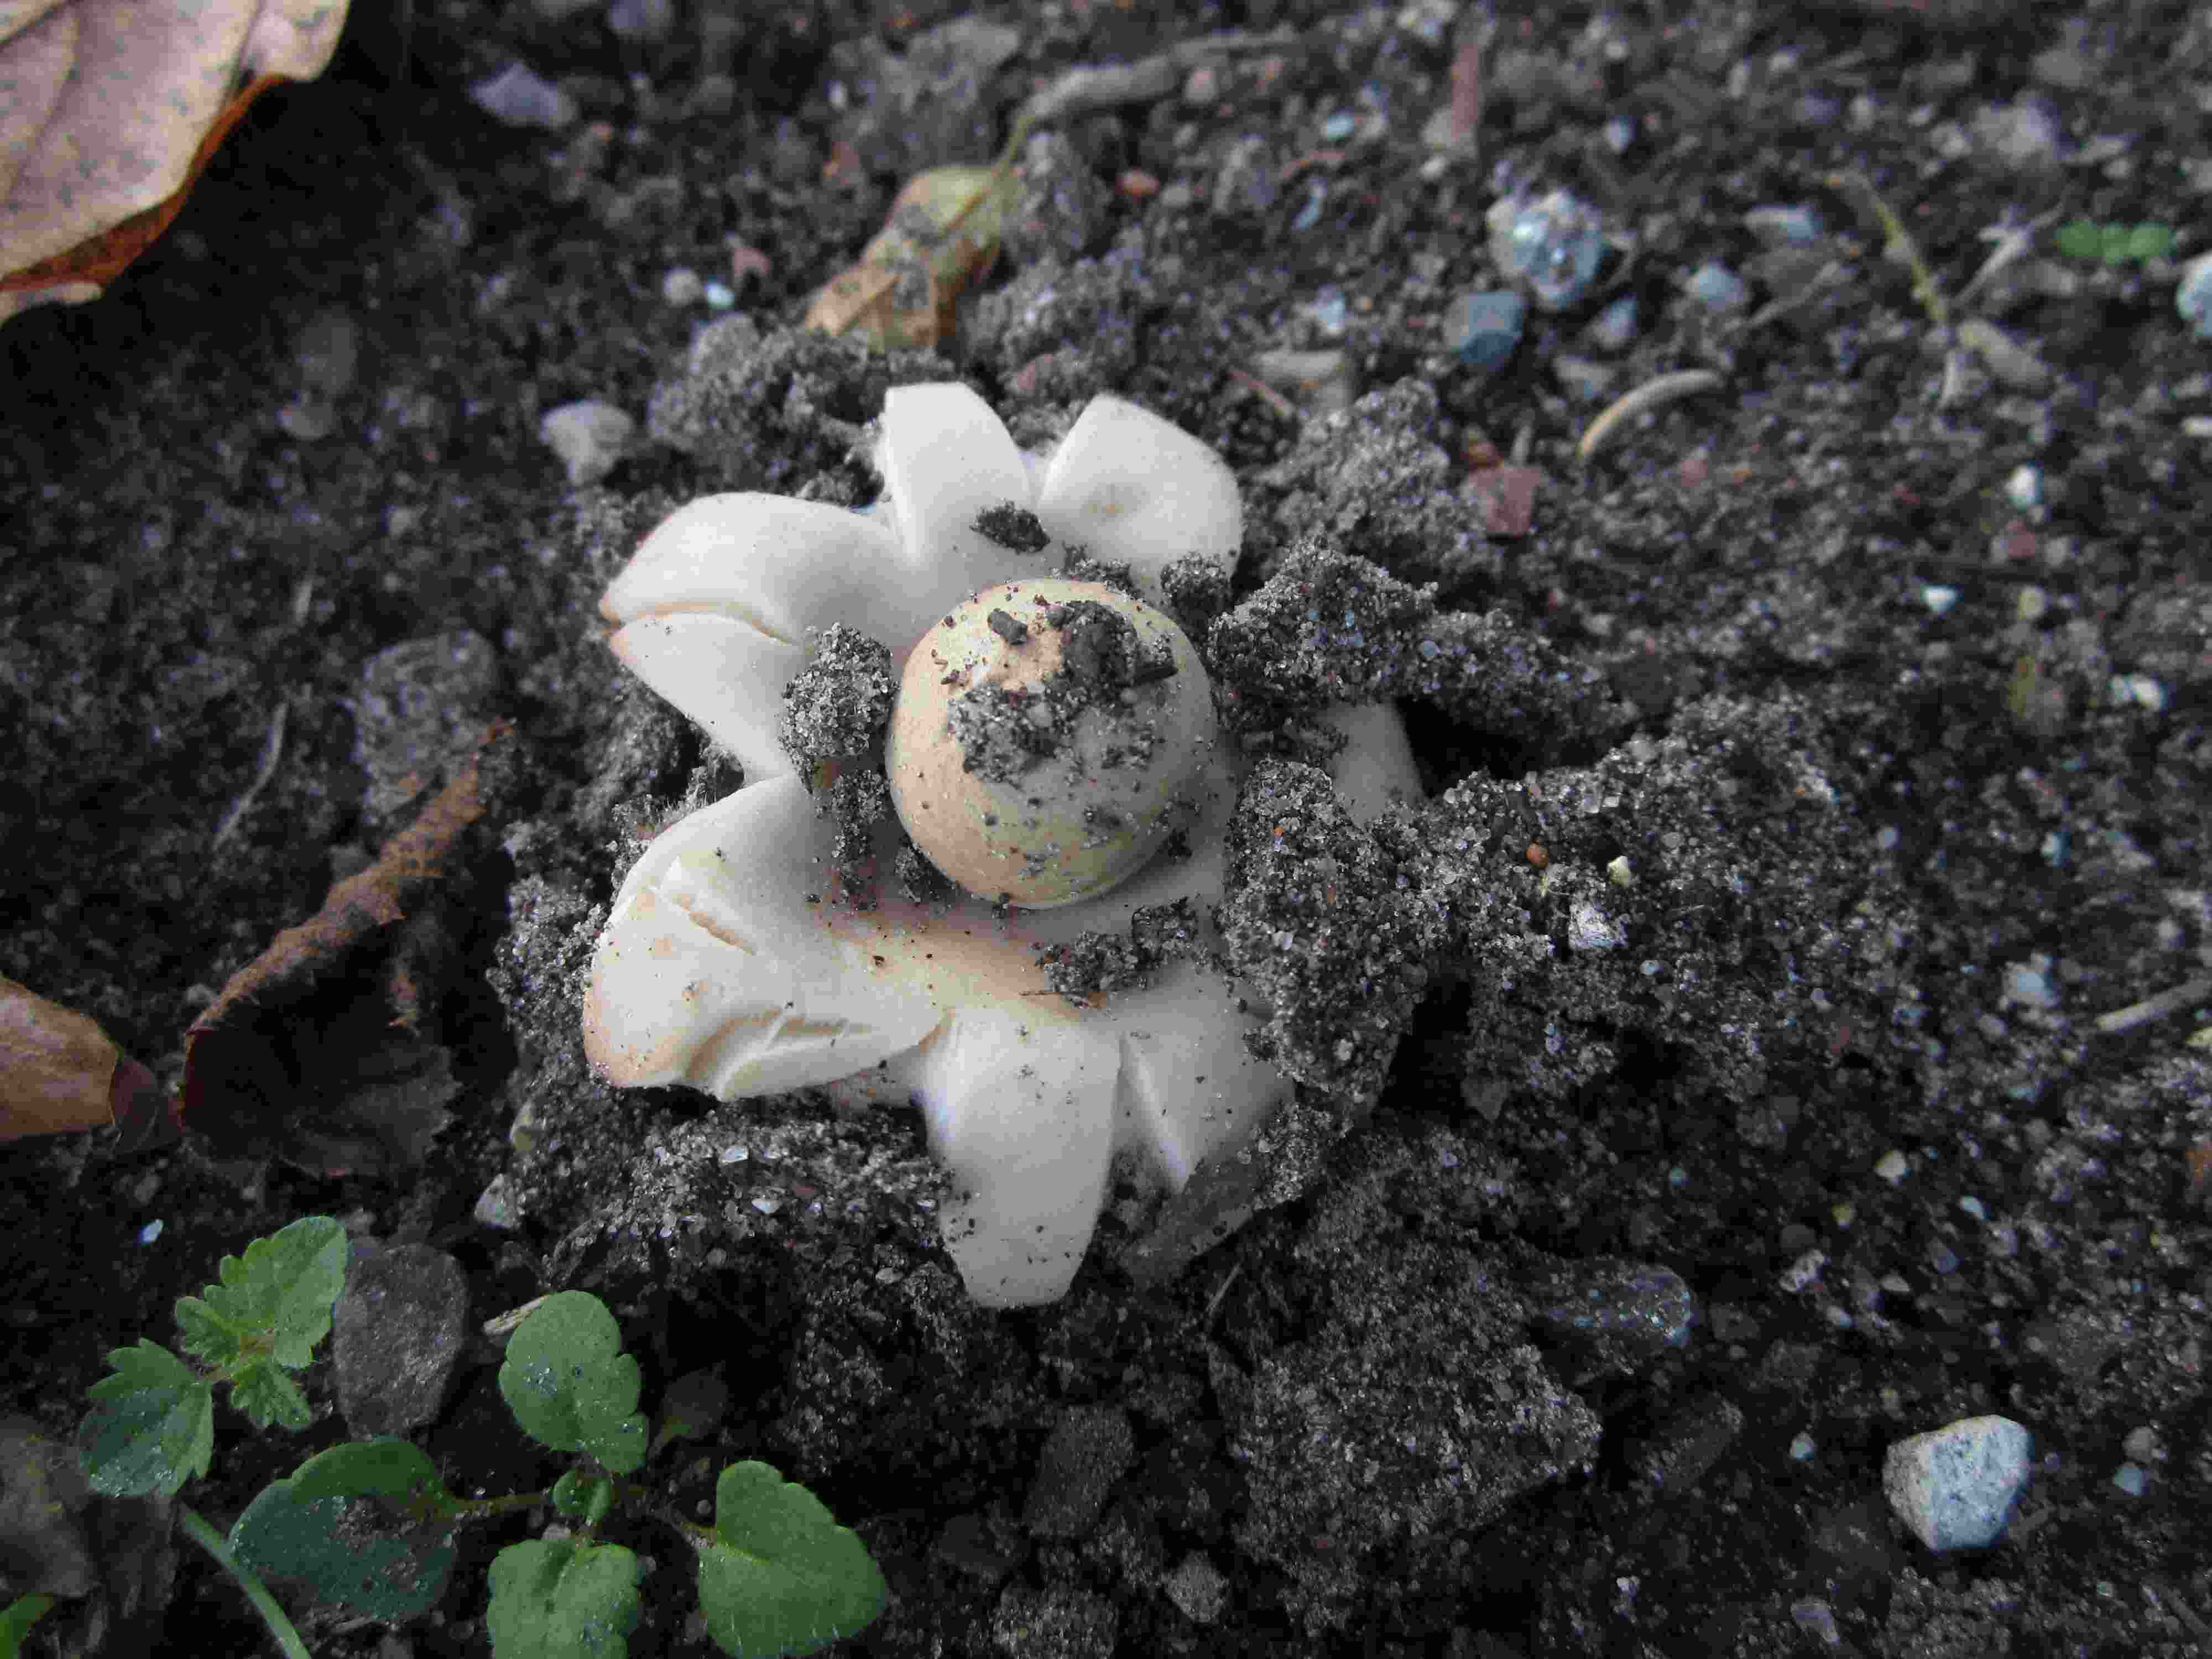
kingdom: Fungi
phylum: Basidiomycota
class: Agaricomycetes
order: Geastrales
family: Geastraceae
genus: Geastrum
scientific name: Geastrum fimbriatum
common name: frynset stjernebold
